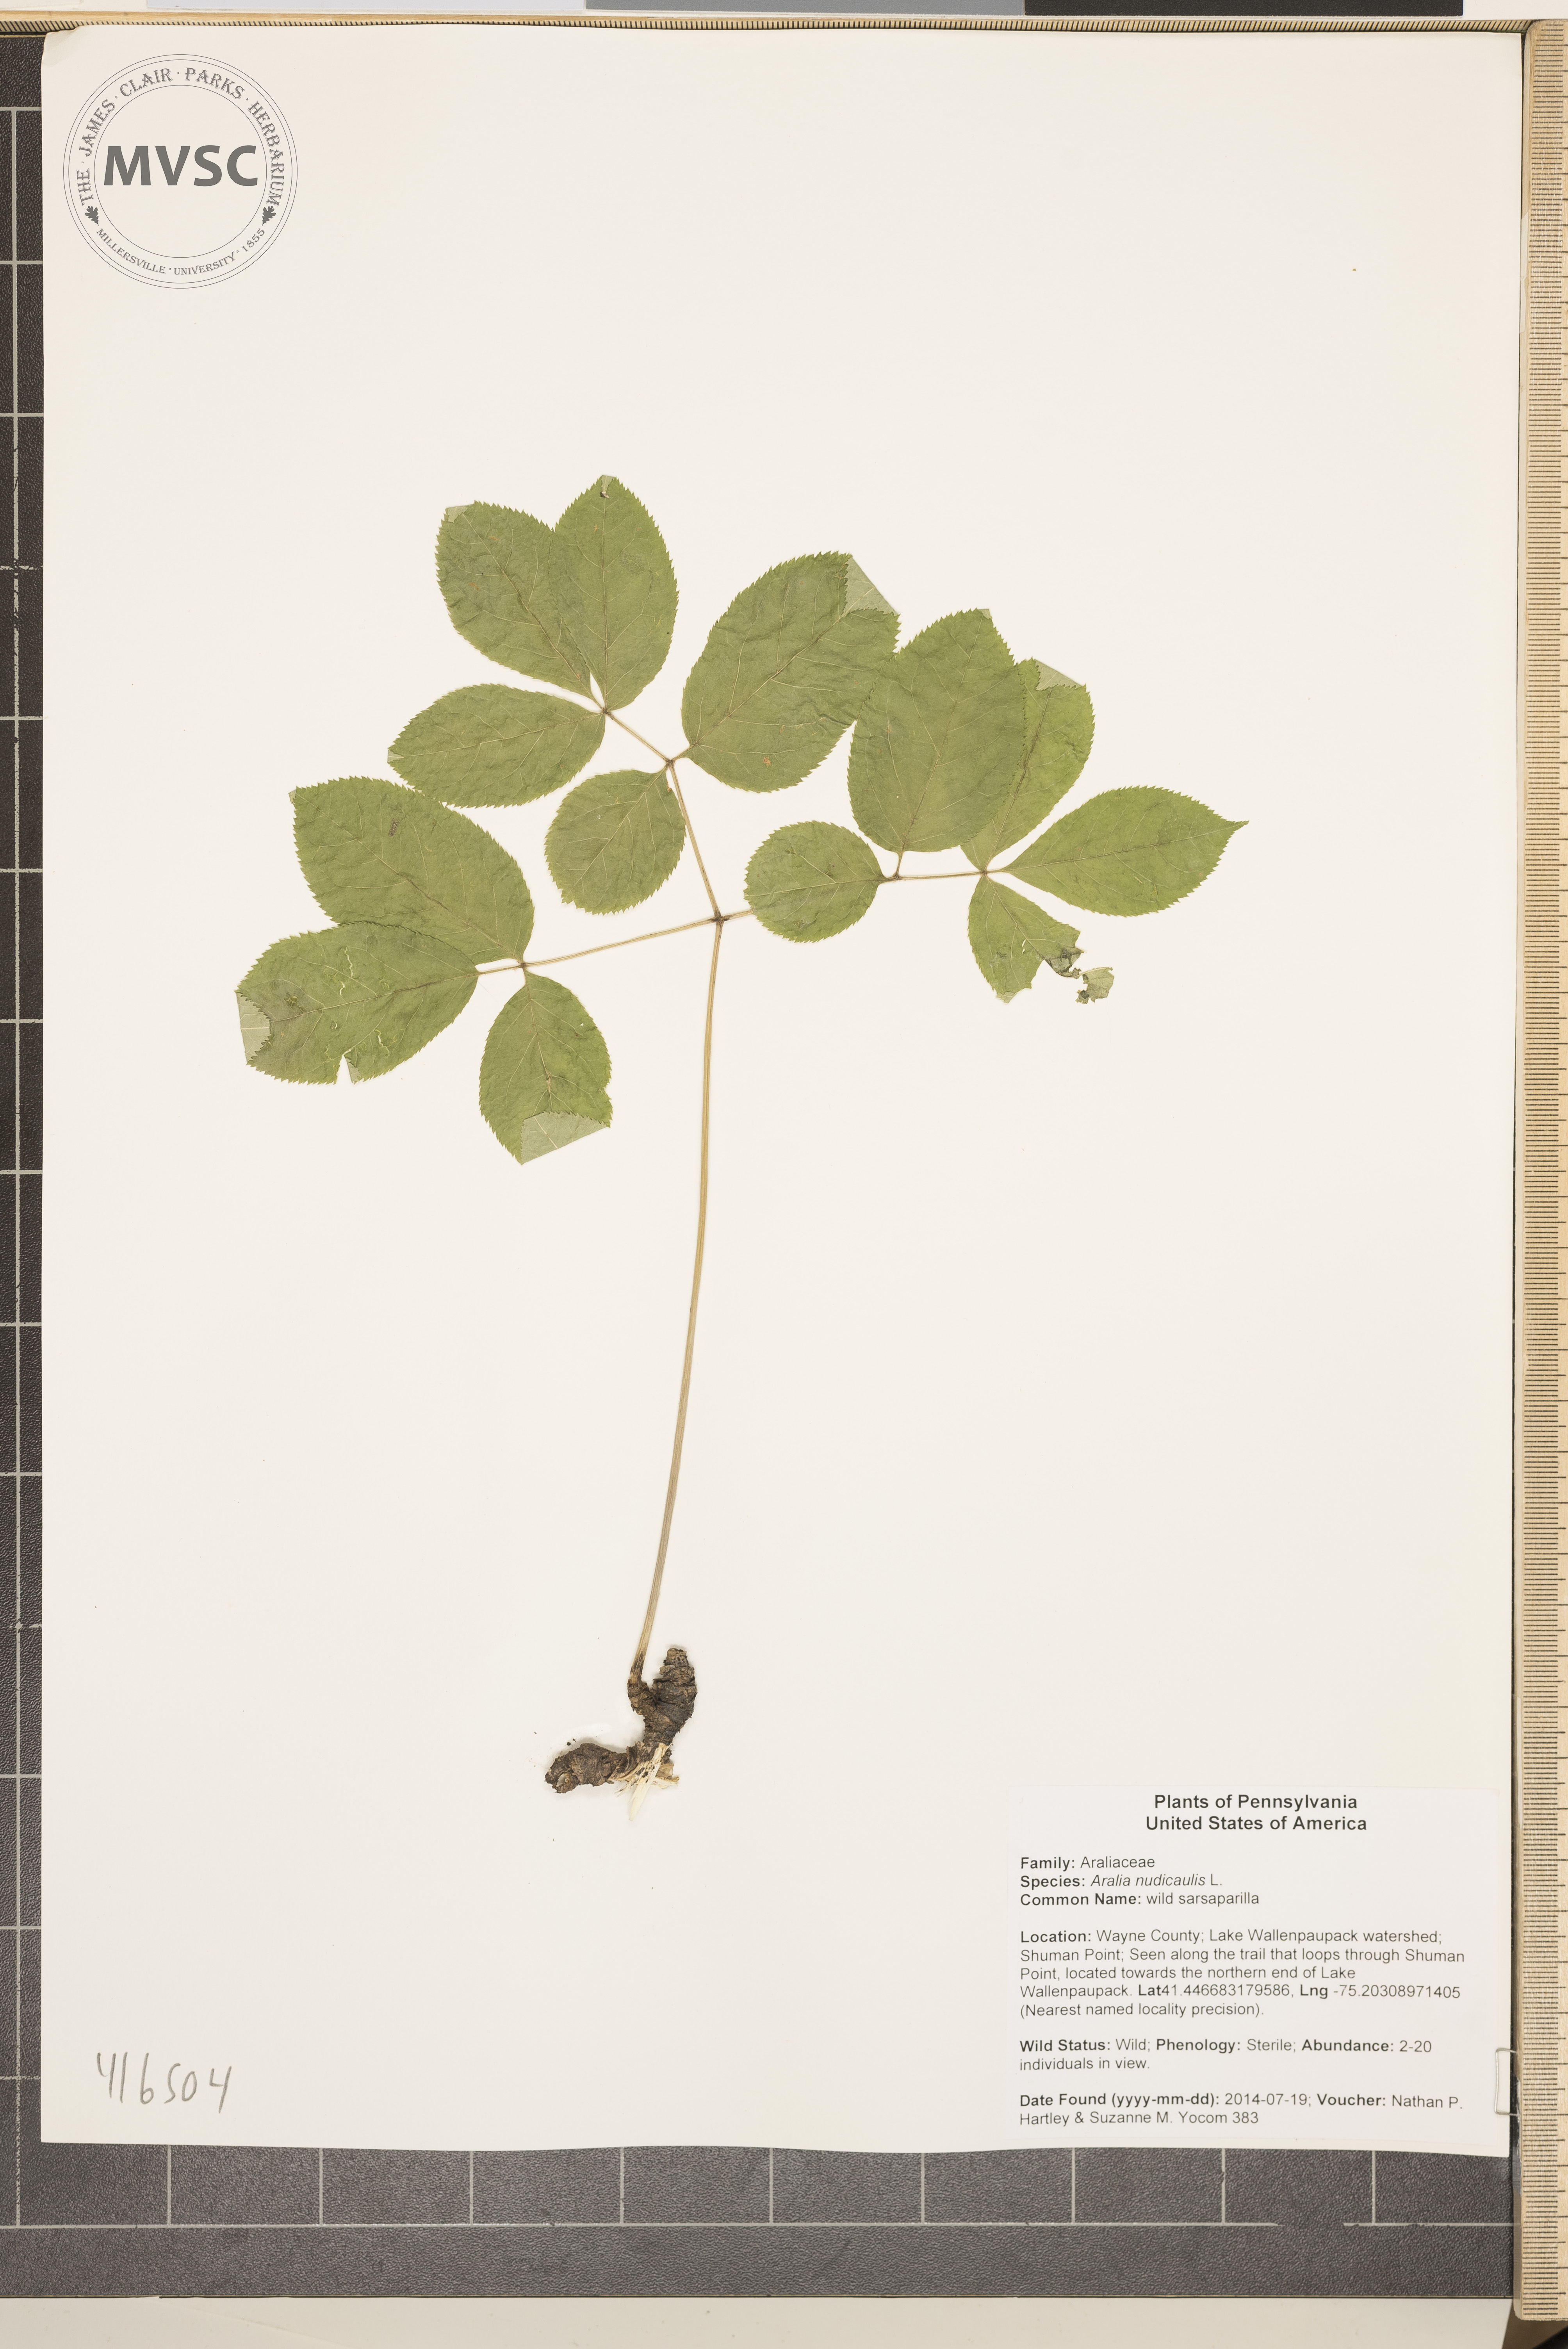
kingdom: Plantae
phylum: Tracheophyta
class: Magnoliopsida
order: Apiales
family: Araliaceae
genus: Aralia
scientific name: Aralia nudicaulis
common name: wild sarsaparilla
